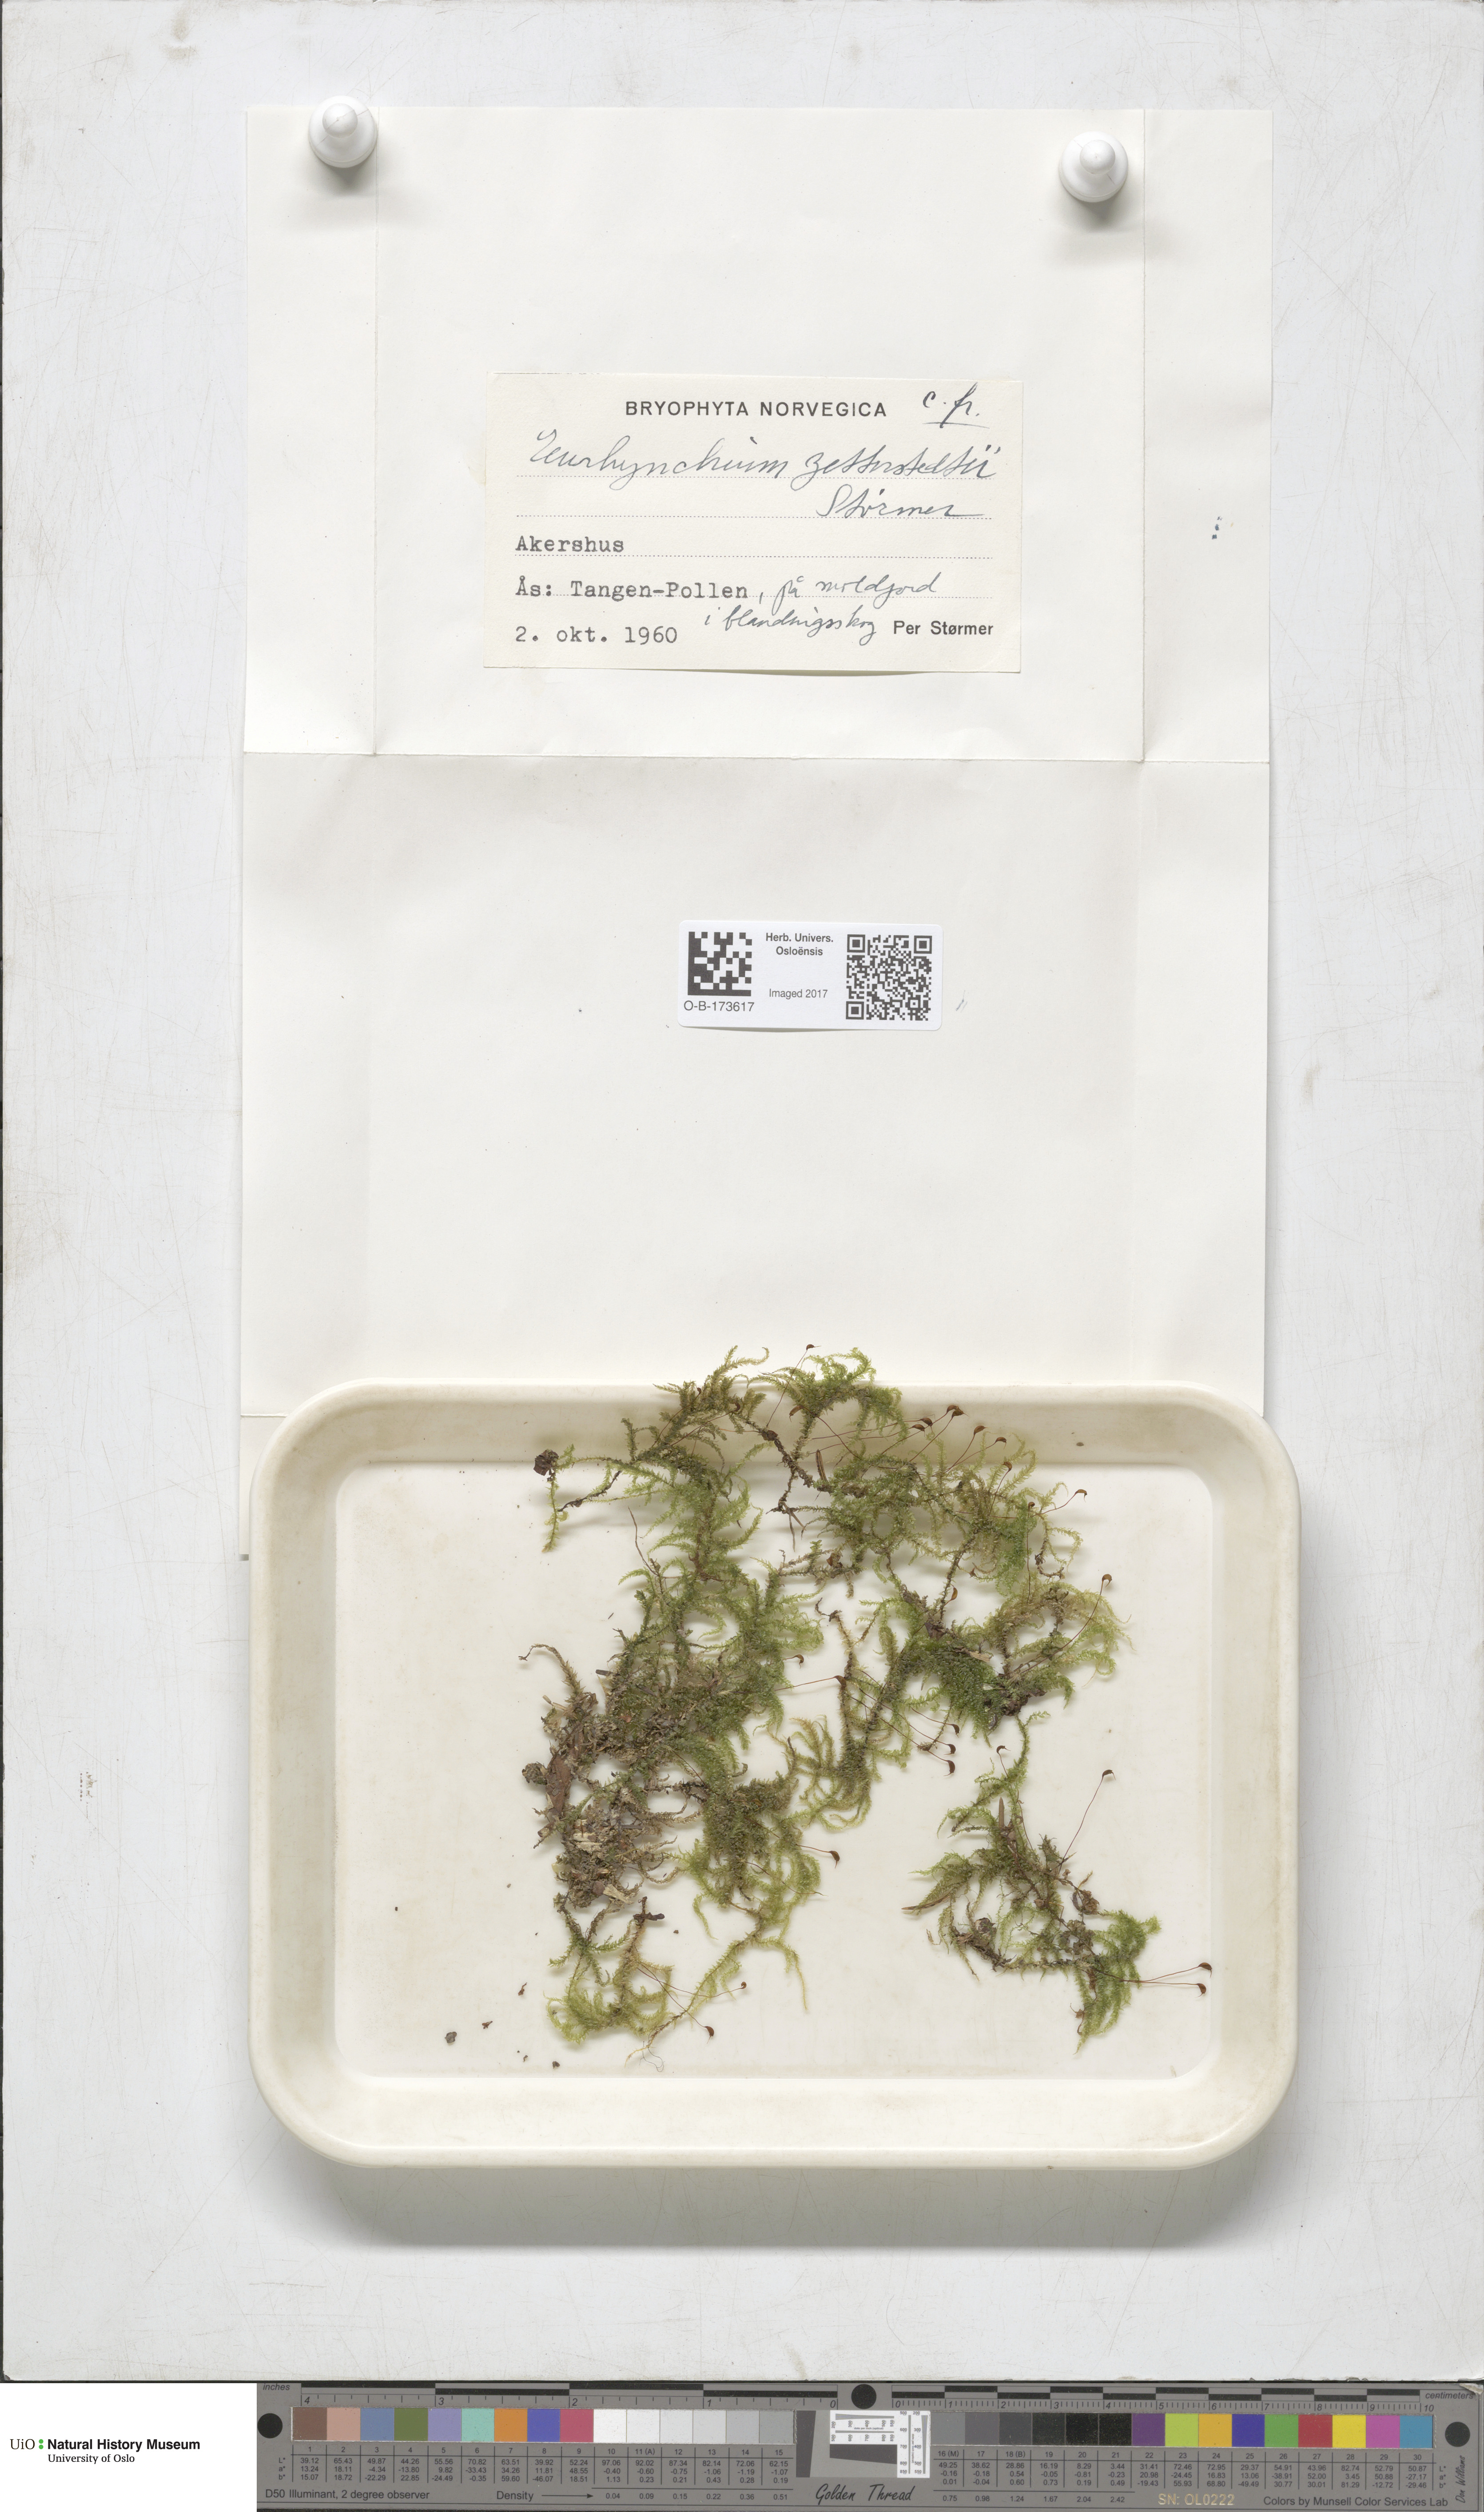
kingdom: Plantae
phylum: Bryophyta
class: Bryopsida
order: Hypnales
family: Brachytheciaceae
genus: Eurhynchium
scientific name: Eurhynchium angustirete
